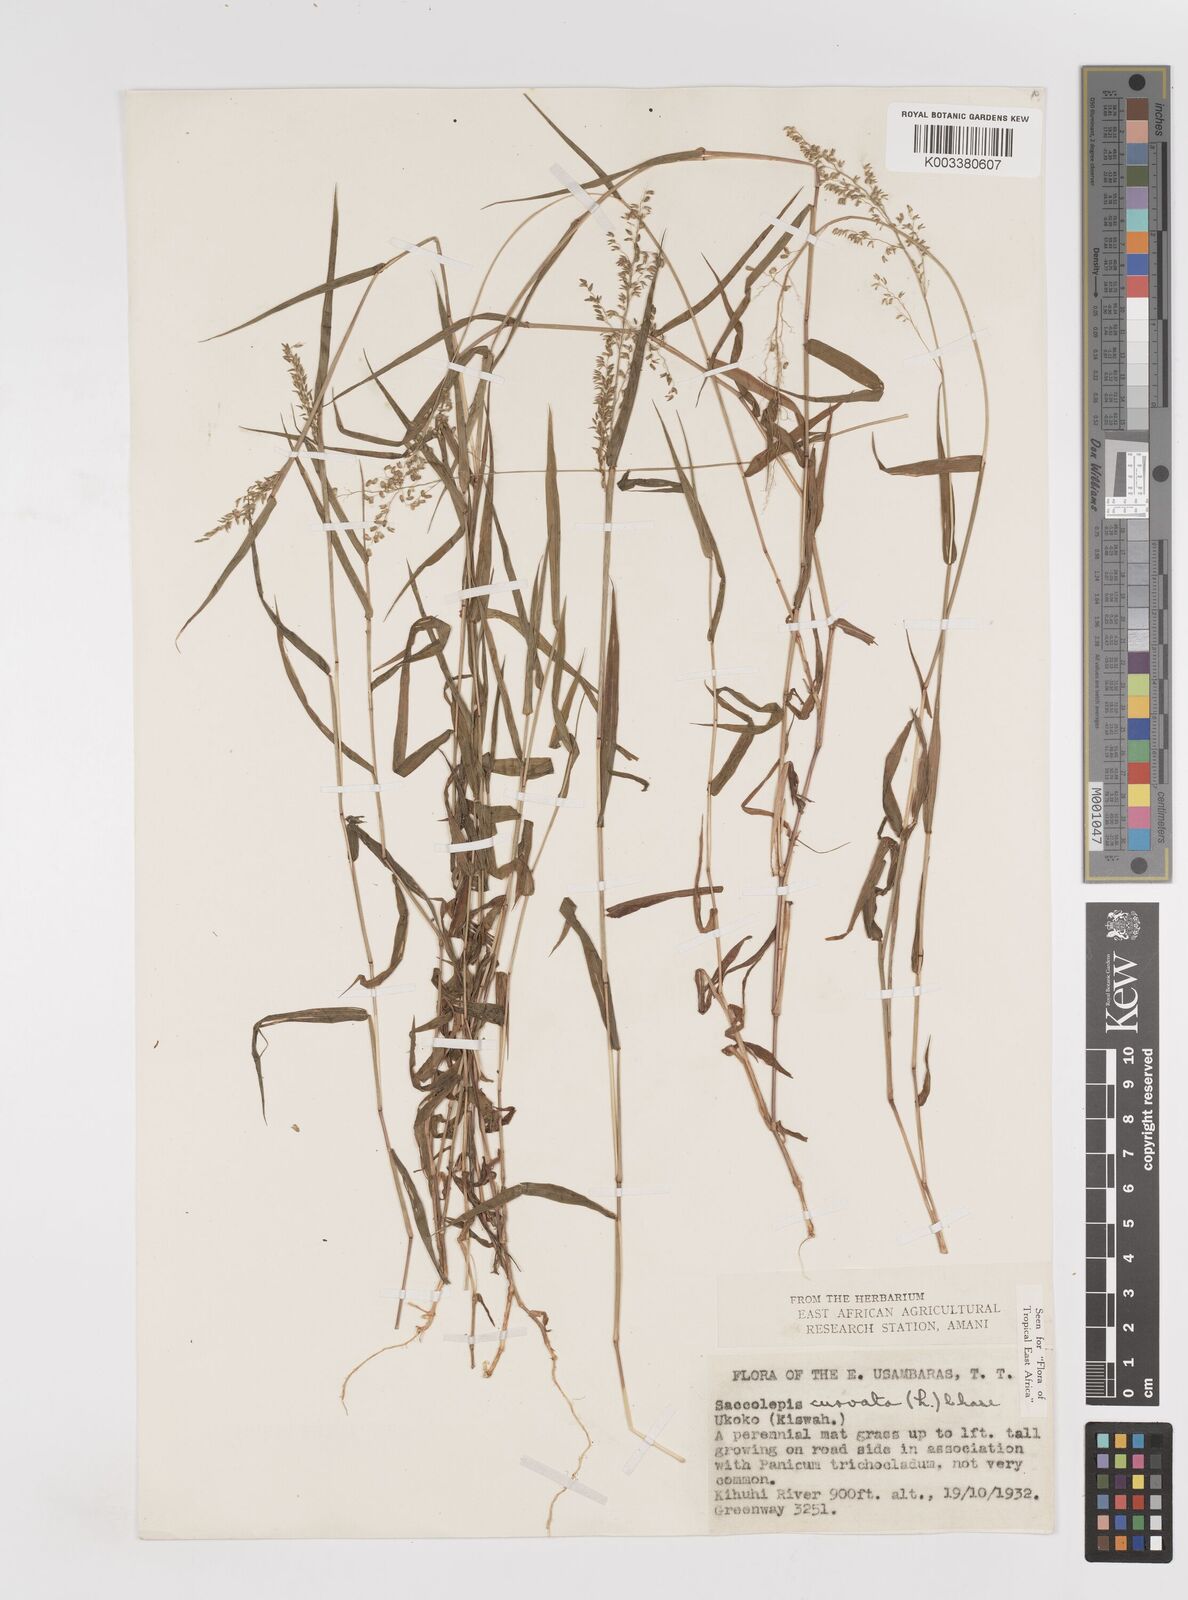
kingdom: Plantae
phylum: Tracheophyta
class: Liliopsida
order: Poales
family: Poaceae
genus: Sacciolepis
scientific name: Sacciolepis curvata
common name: Forest hood grass
